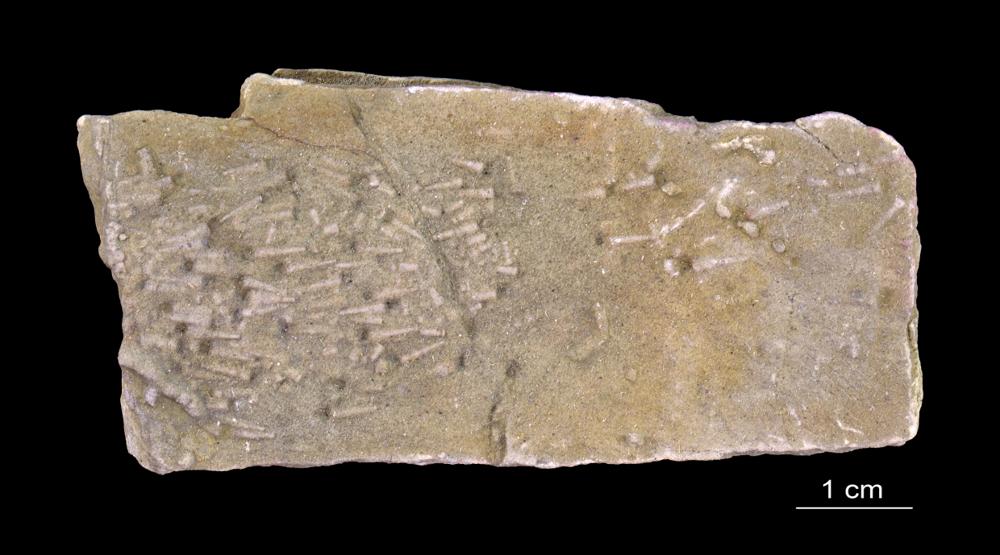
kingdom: Animalia
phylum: Annelida
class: Polychaeta
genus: Volborthella
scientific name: Volborthella tenuis
